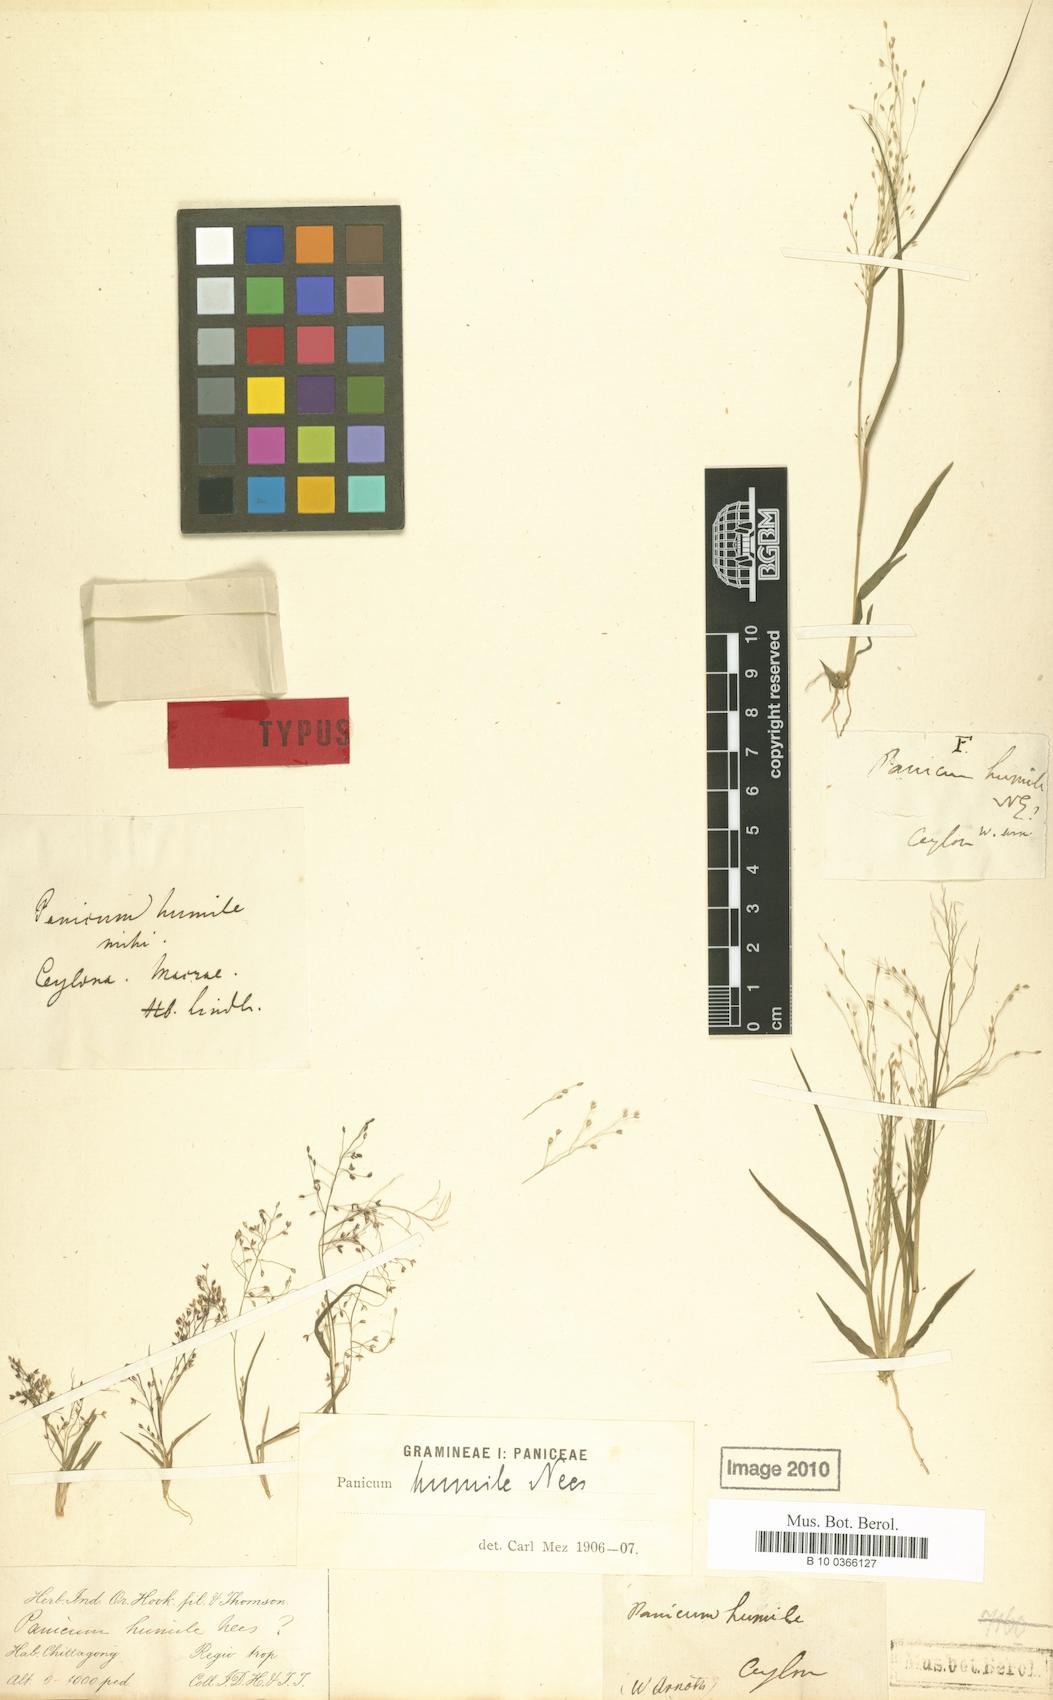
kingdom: Plantae
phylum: Tracheophyta
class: Liliopsida
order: Poales
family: Poaceae
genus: Panicum
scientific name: Panicum humile
